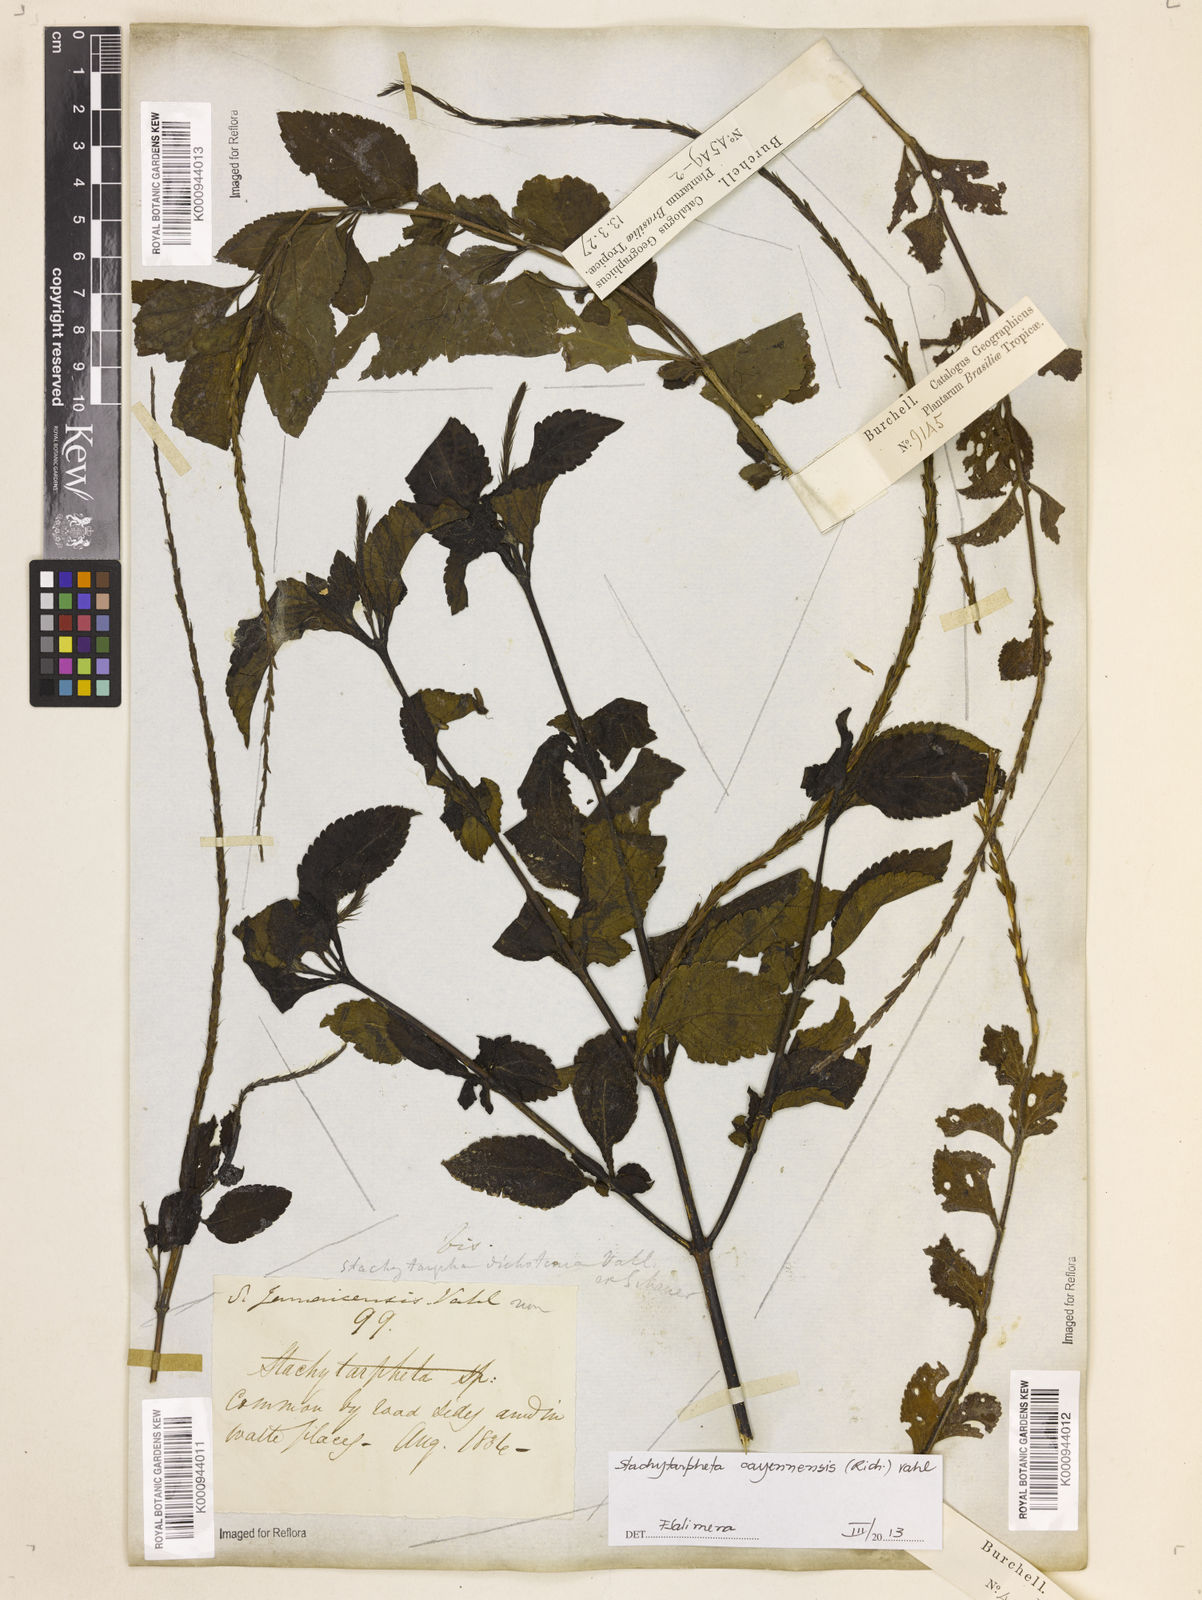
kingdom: Plantae
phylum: Tracheophyta
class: Magnoliopsida
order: Lamiales
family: Verbenaceae
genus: Aloysia
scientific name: Aloysia
